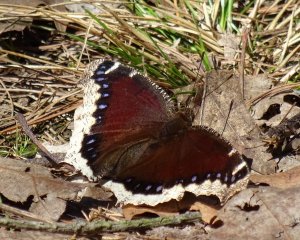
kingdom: Animalia
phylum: Arthropoda
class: Insecta
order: Lepidoptera
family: Nymphalidae
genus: Nymphalis
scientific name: Nymphalis antiopa
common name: Mourning Cloak
